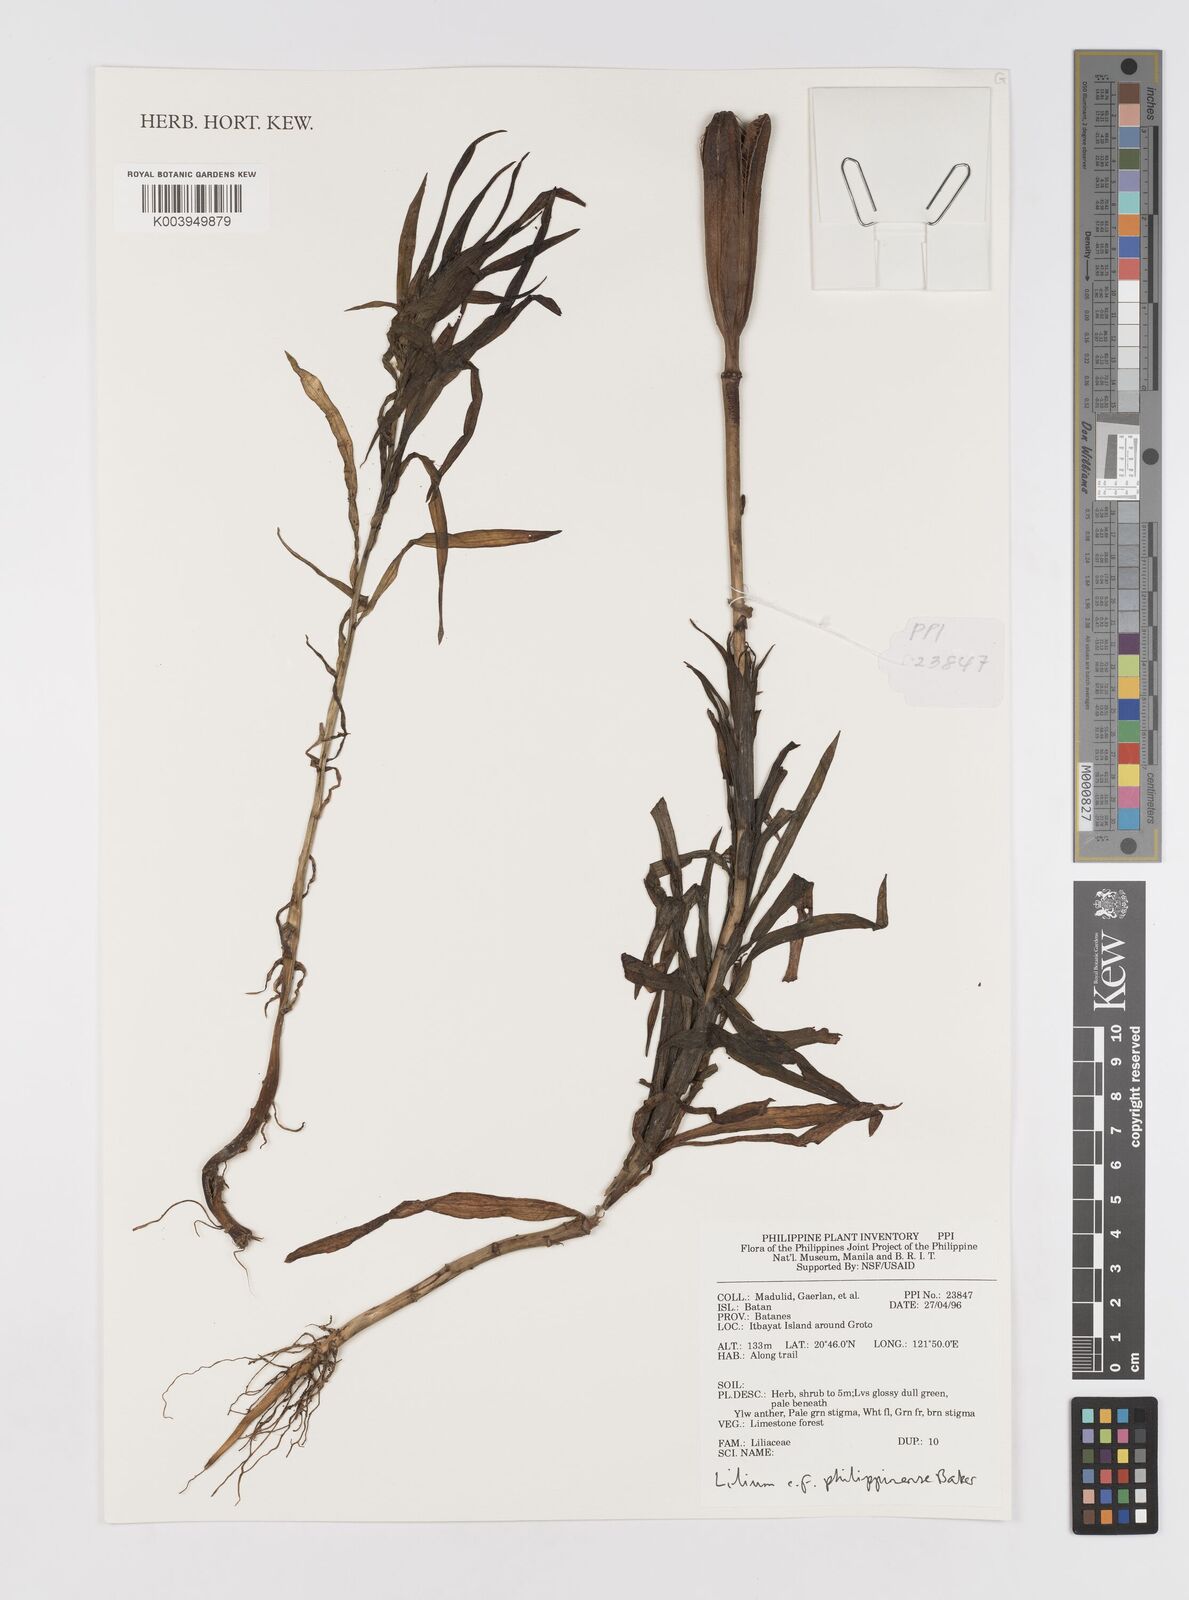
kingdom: Plantae
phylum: Tracheophyta
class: Liliopsida
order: Liliales
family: Liliaceae
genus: Lilium
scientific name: Lilium philippinense
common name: Philippine lily
